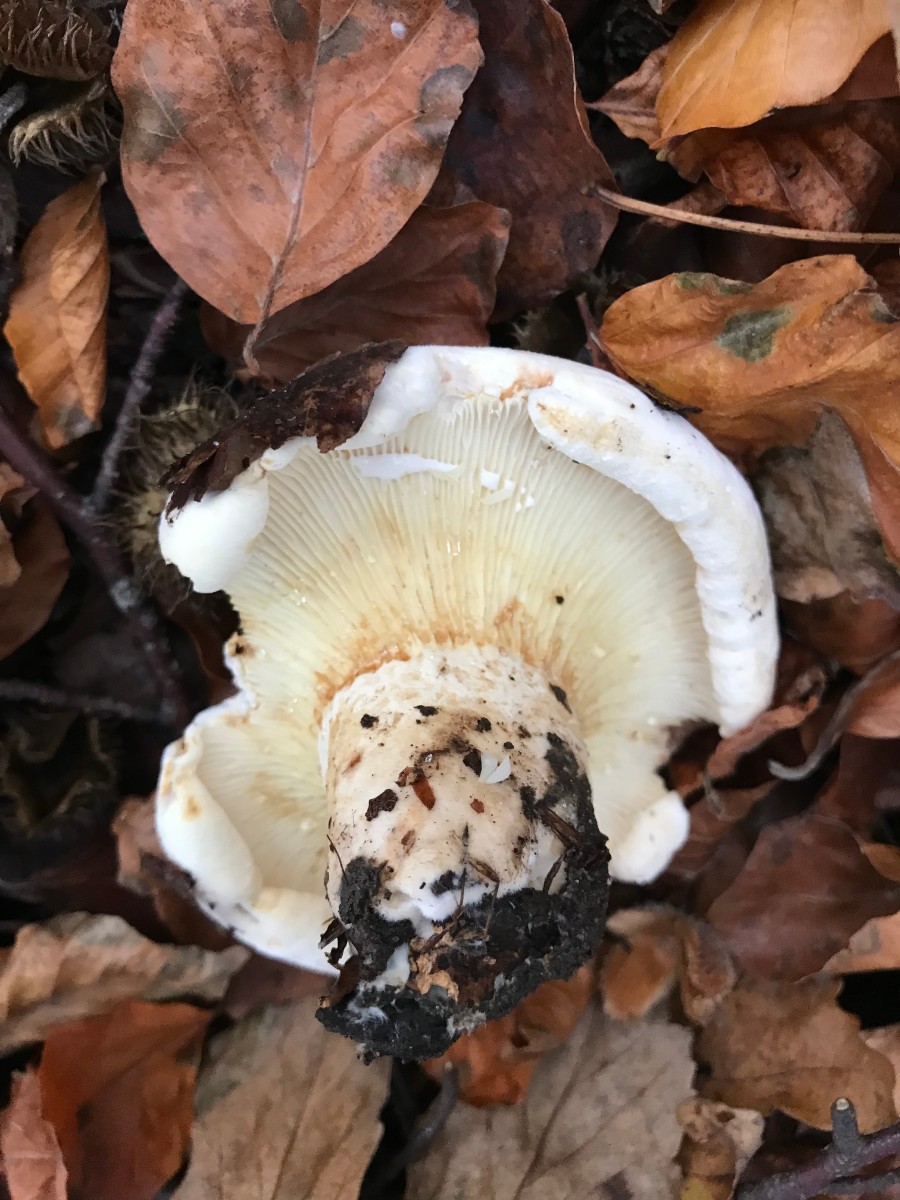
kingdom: Fungi
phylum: Basidiomycota
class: Agaricomycetes
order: Russulales
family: Russulaceae
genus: Lactifluus
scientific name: Lactifluus vellereus
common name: hvidfiltet mælkehat
